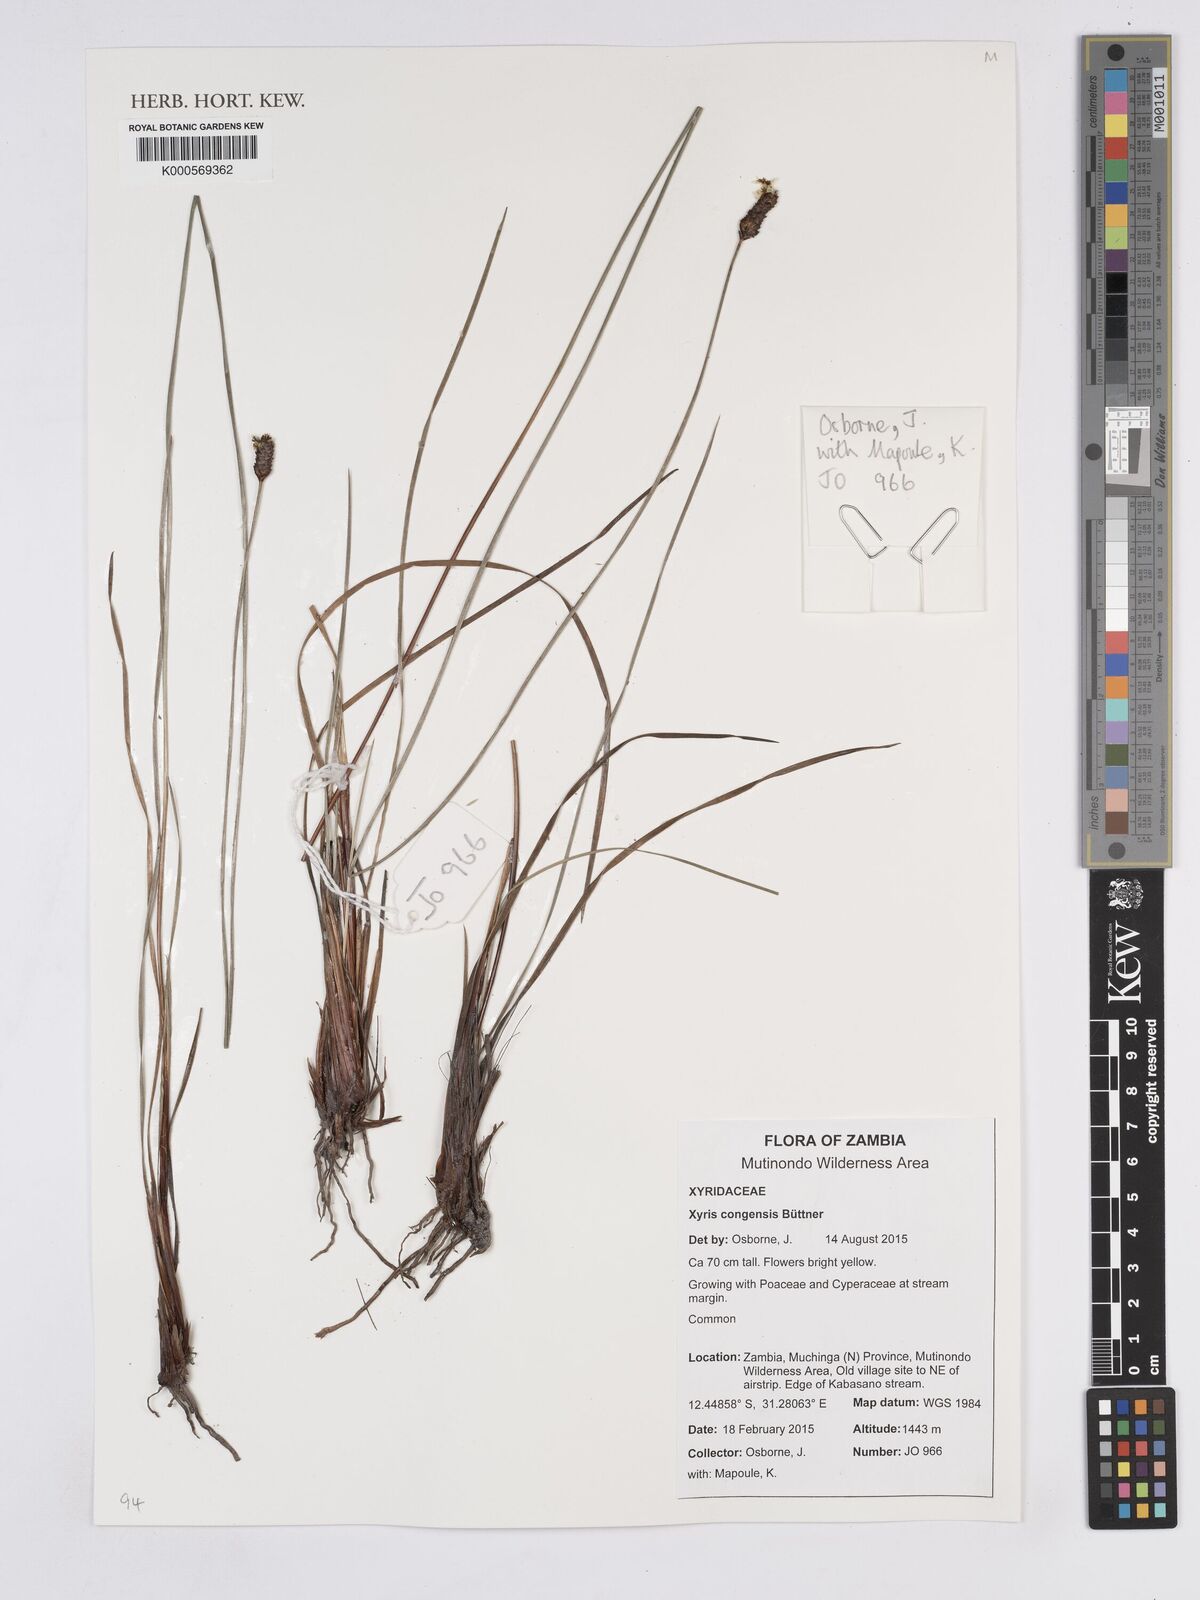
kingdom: Plantae
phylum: Tracheophyta
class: Liliopsida
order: Poales
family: Xyridaceae
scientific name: Xyridaceae
